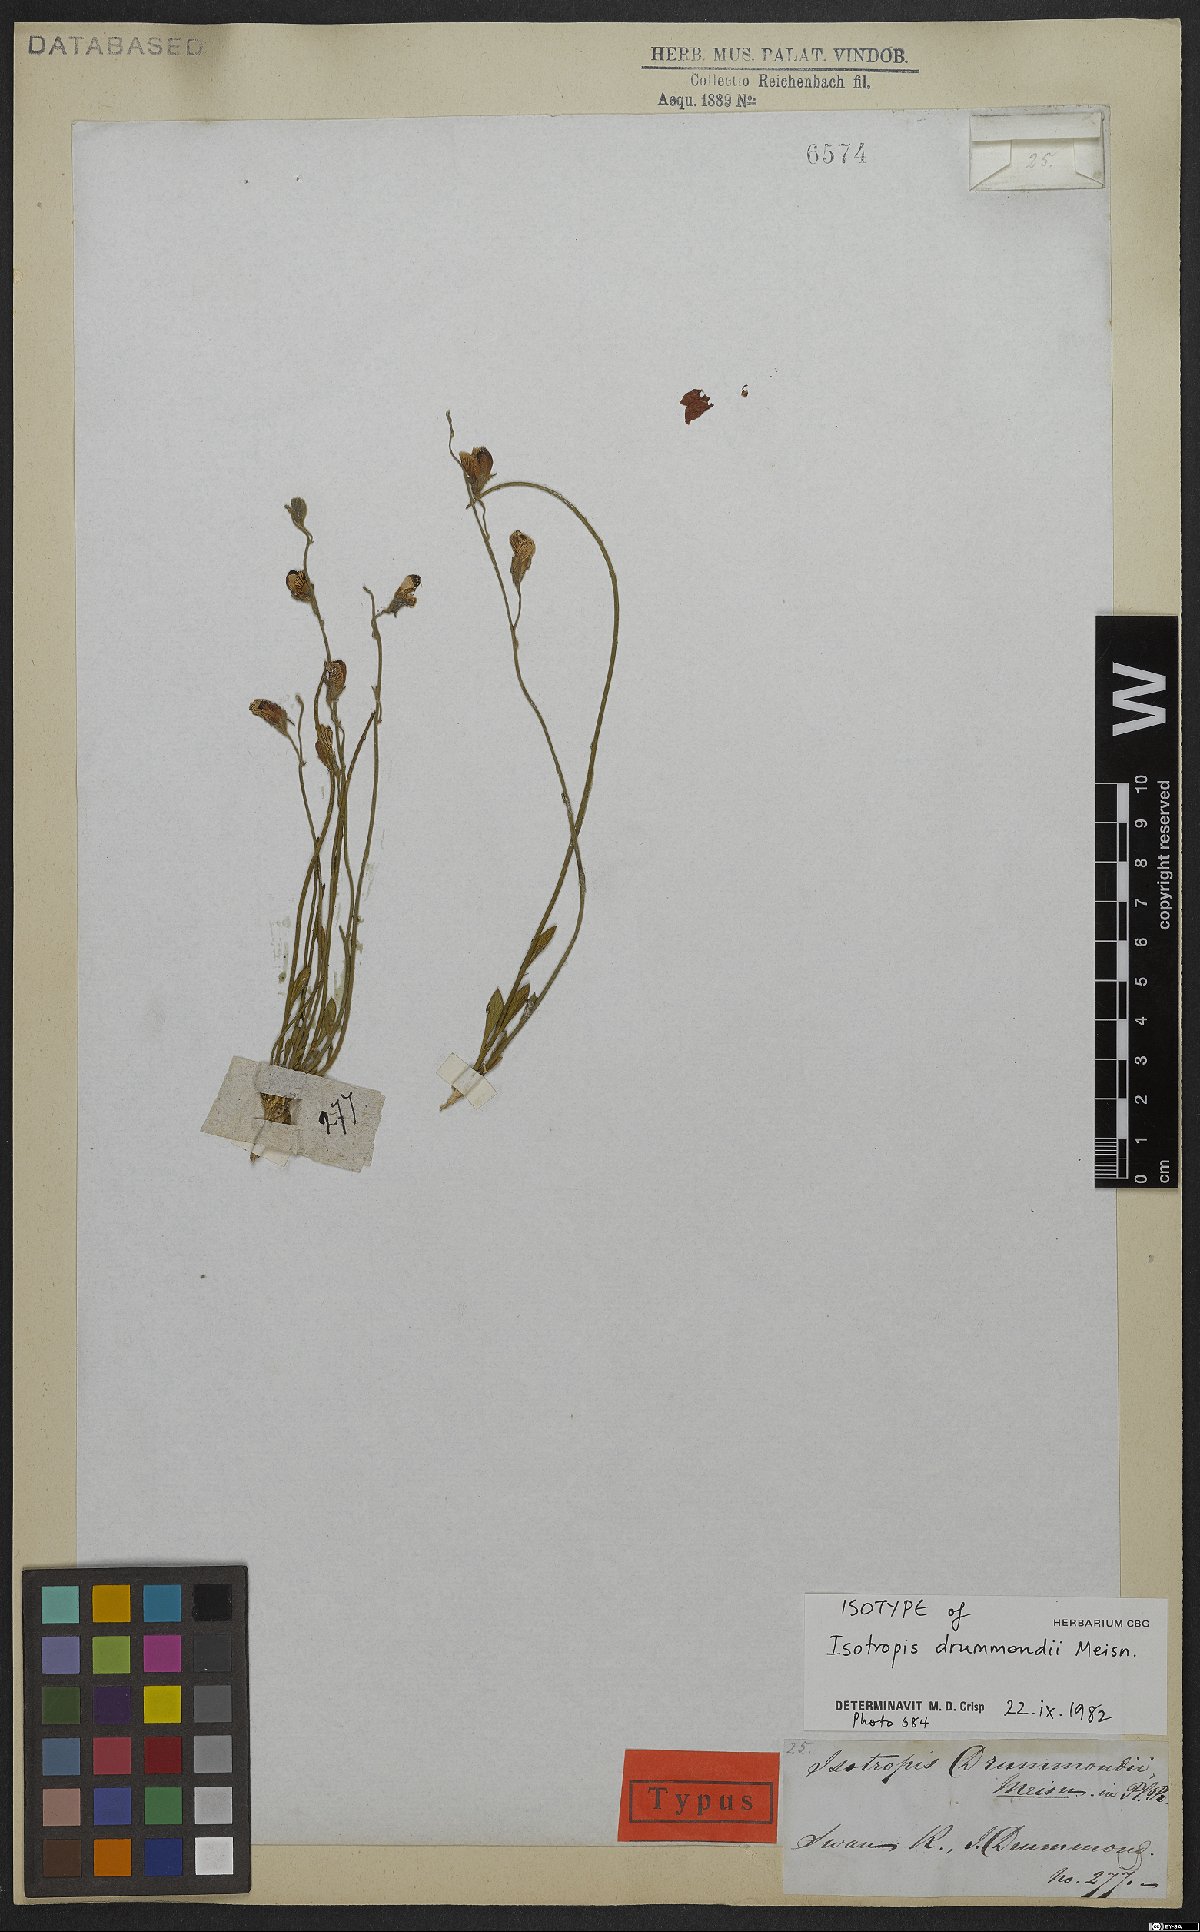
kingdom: Plantae
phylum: Tracheophyta
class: Magnoliopsida
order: Fabales
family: Fabaceae
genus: Isotropis
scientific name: Isotropis drummondii
